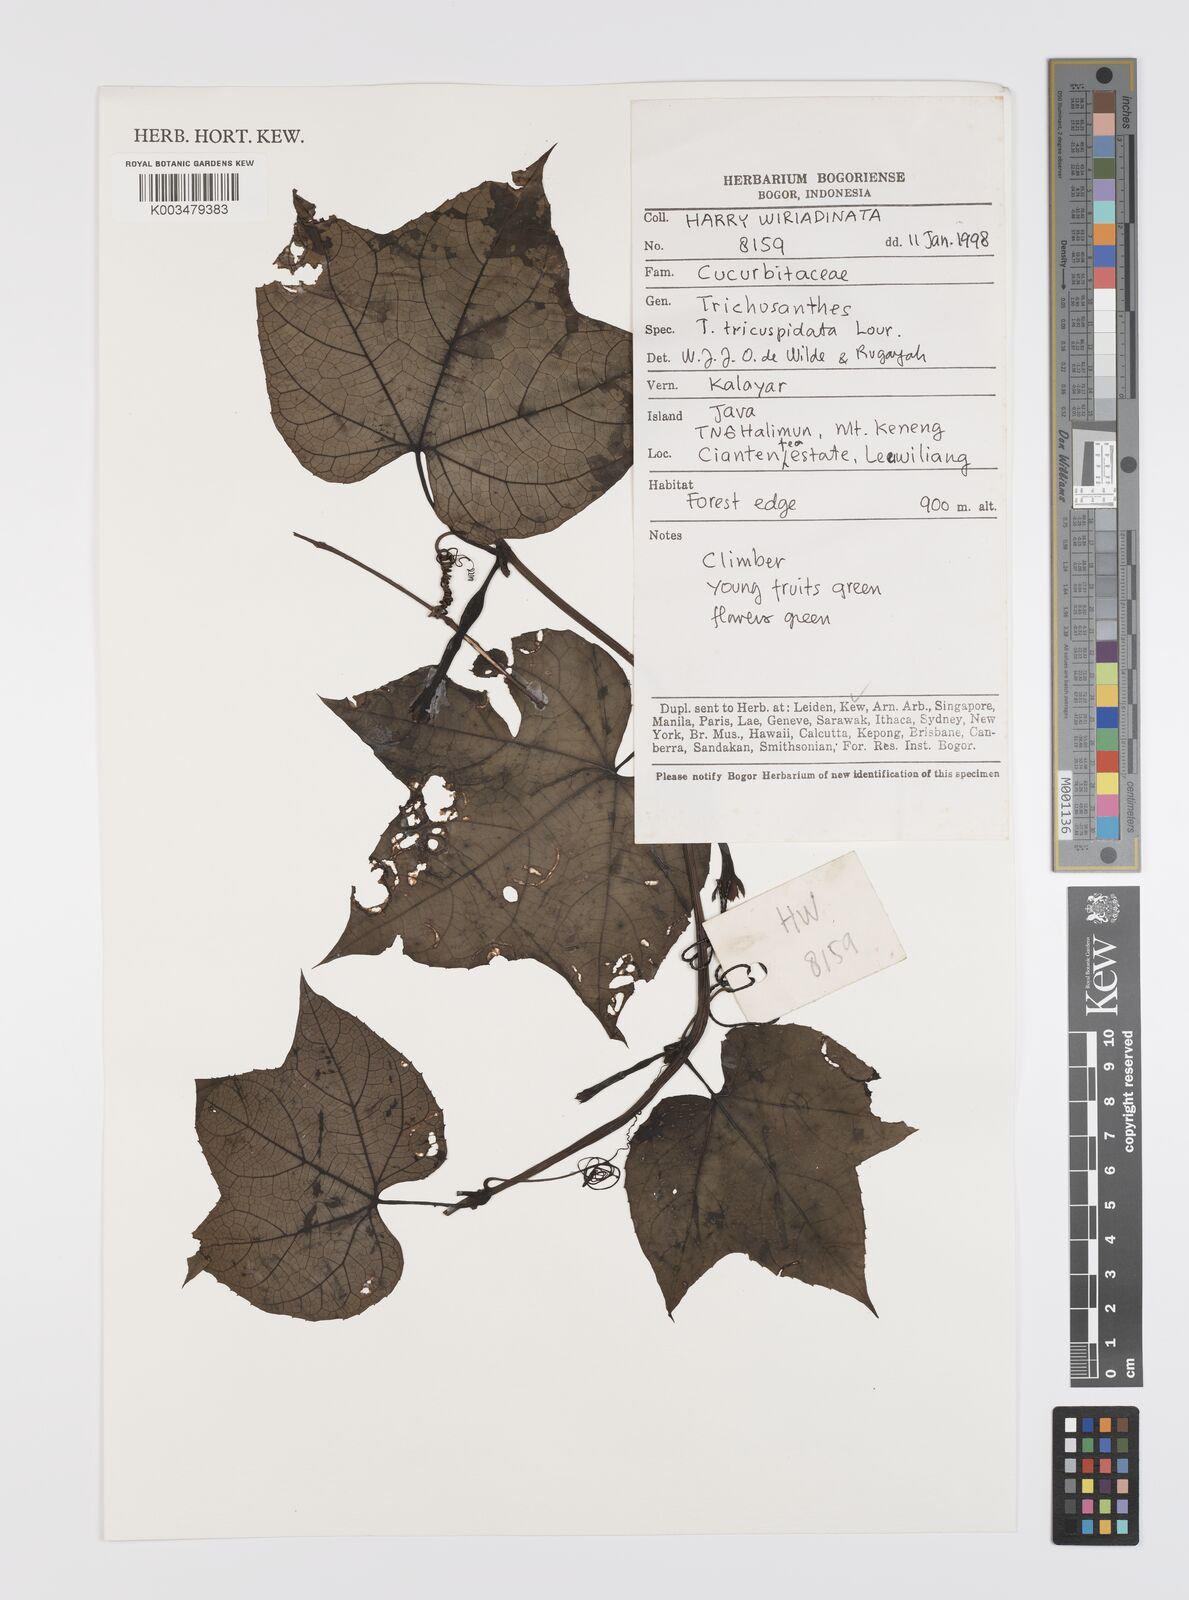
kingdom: Plantae
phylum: Tracheophyta
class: Magnoliopsida
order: Cucurbitales
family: Cucurbitaceae
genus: Trichosanthes
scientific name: Trichosanthes tricuspidata
